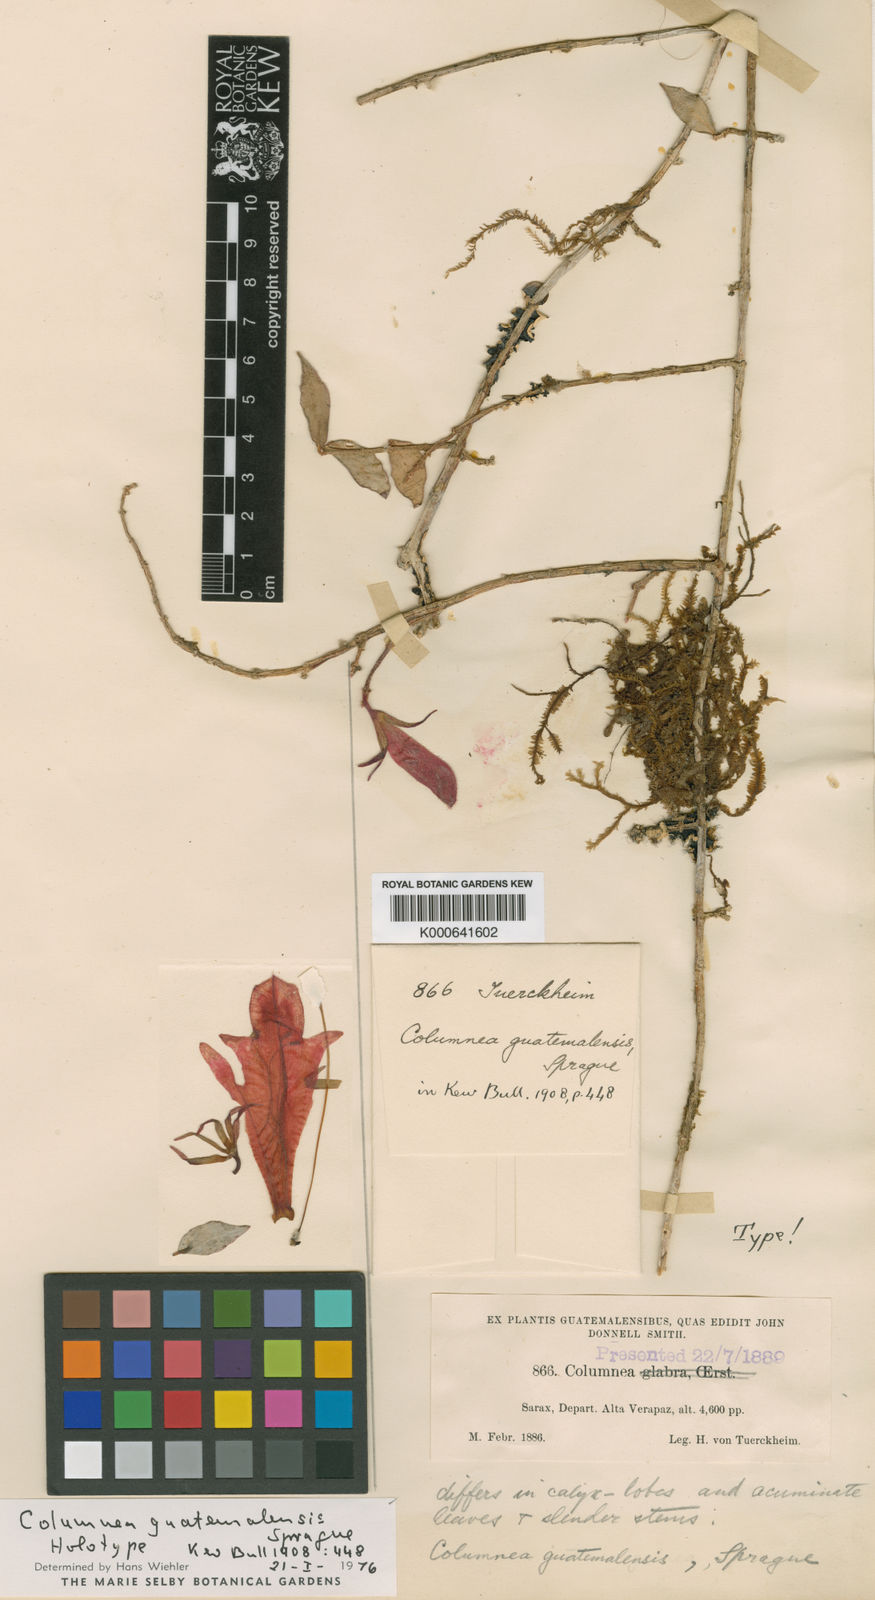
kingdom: Plantae
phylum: Tracheophyta
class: Magnoliopsida
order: Lamiales
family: Gesneriaceae
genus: Columnea
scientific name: Columnea guatemalensis
